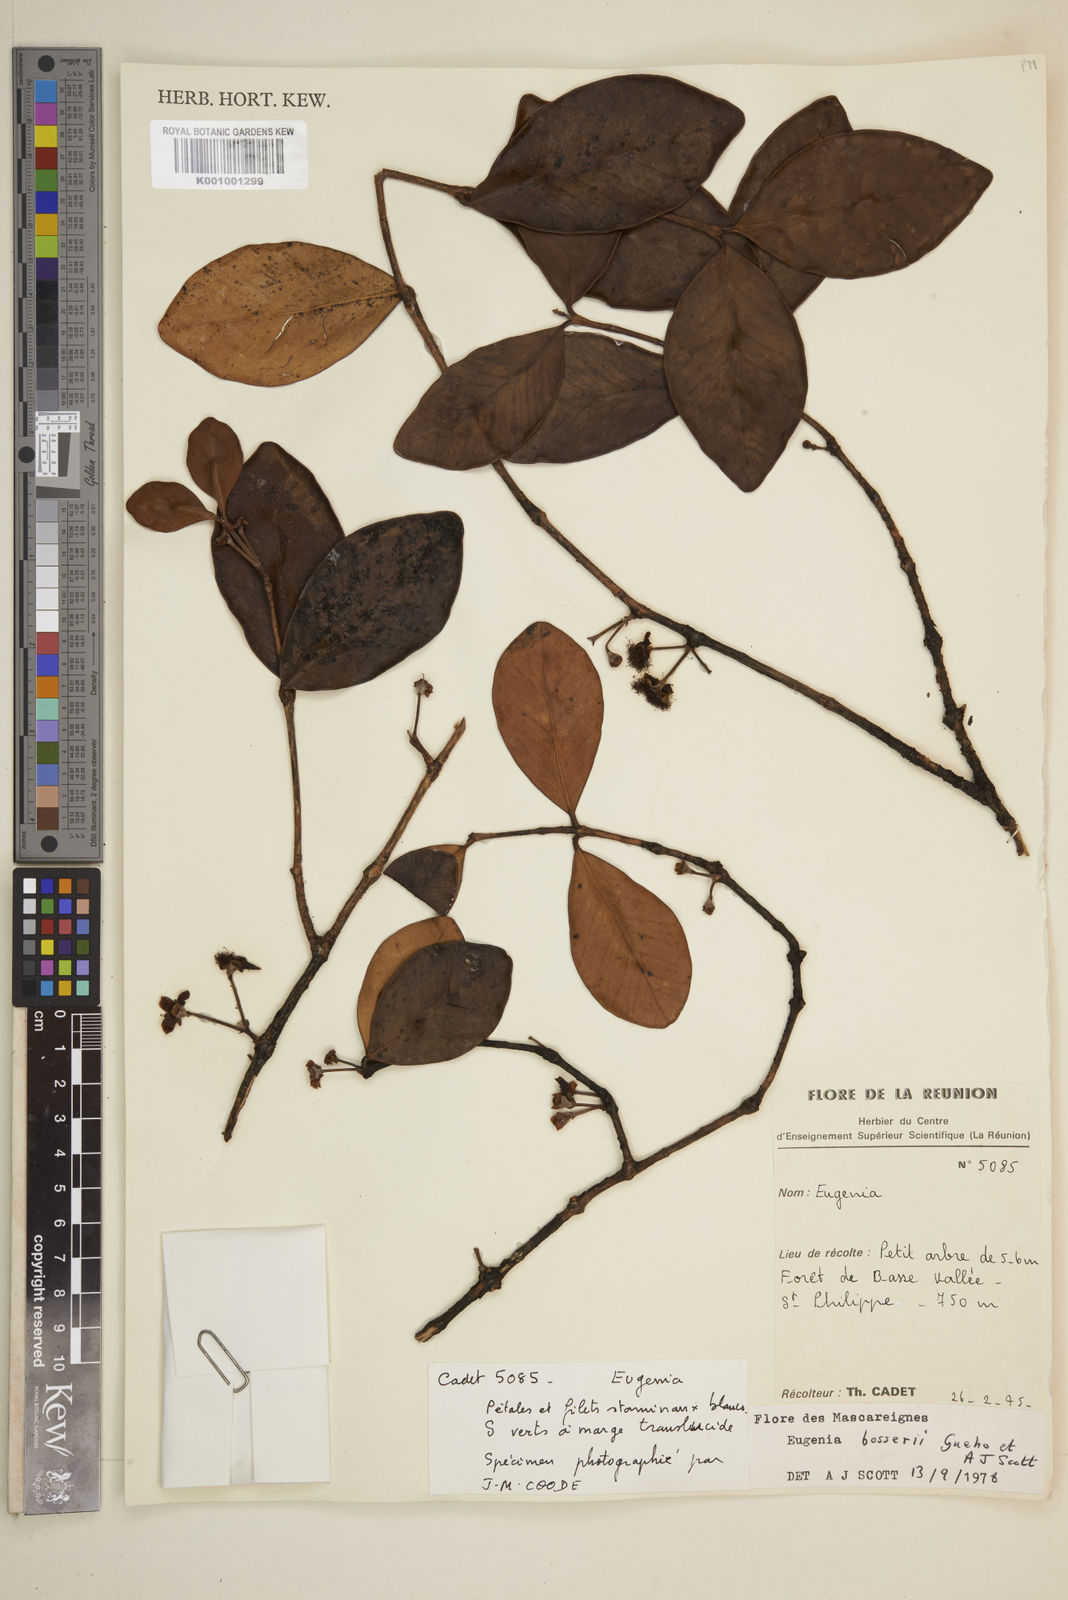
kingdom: Plantae
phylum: Tracheophyta
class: Magnoliopsida
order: Myrtales
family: Myrtaceae
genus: Eugenia
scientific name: Eugenia
